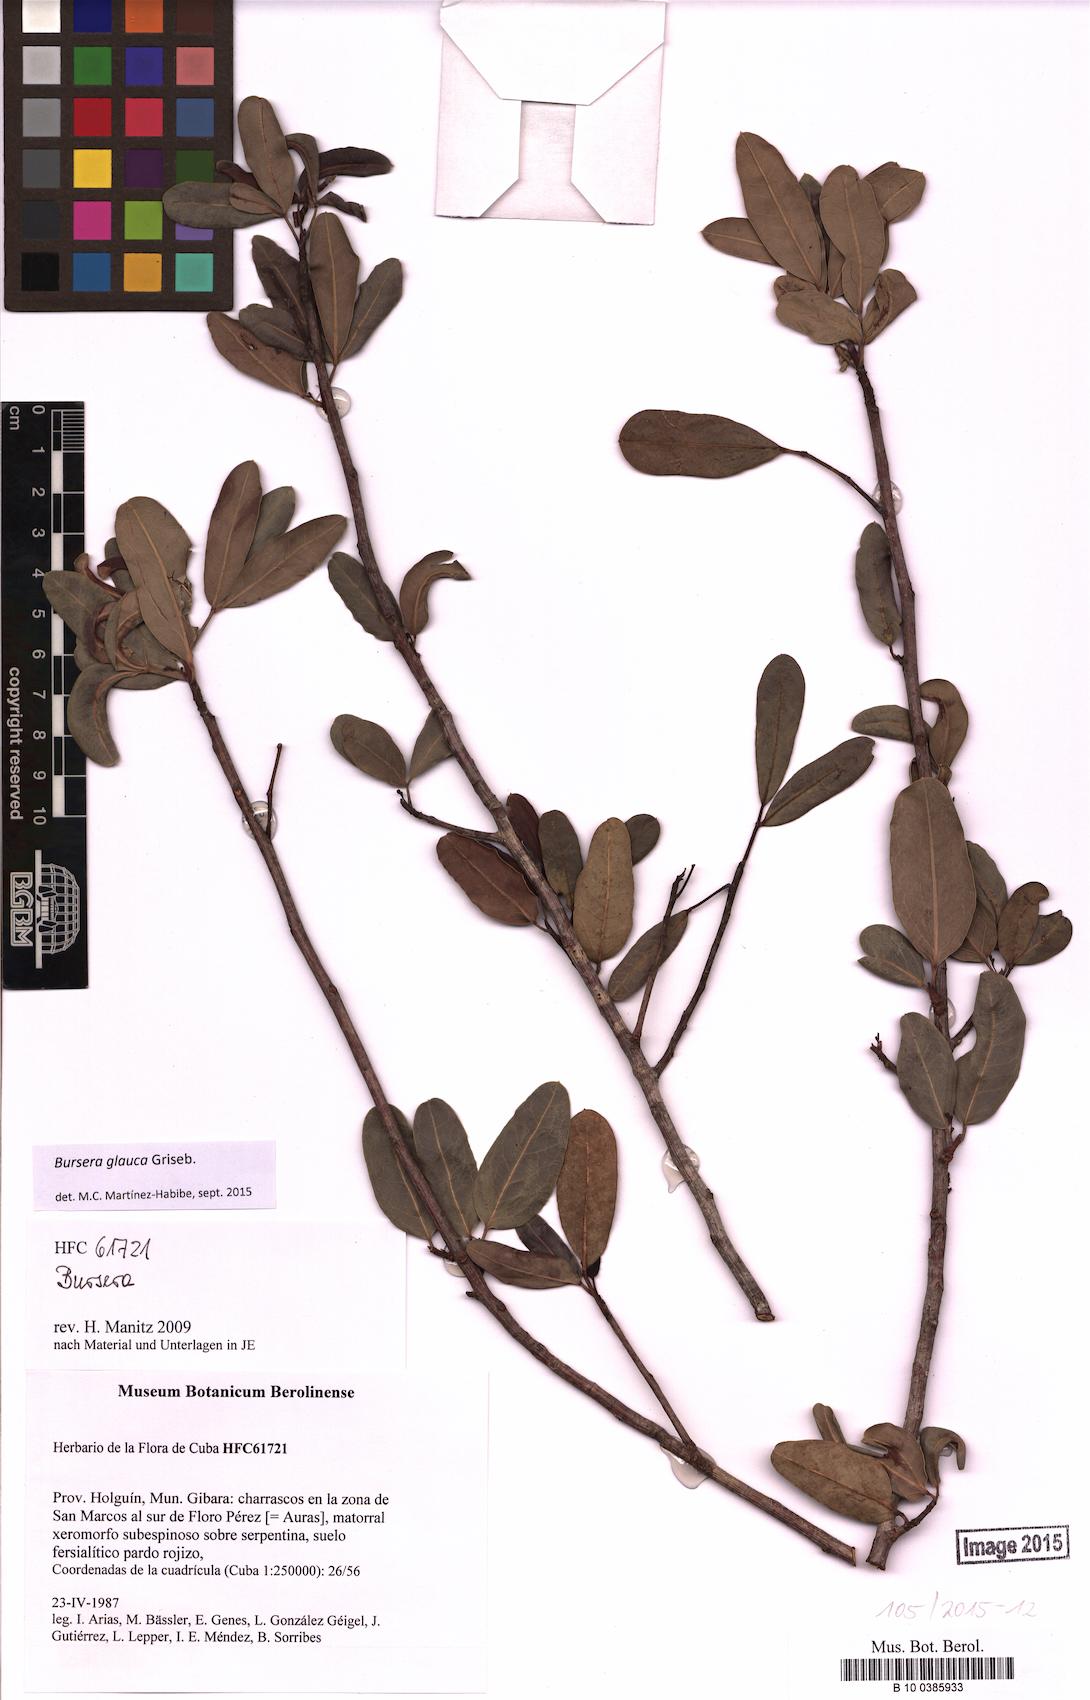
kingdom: Plantae
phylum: Tracheophyta
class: Magnoliopsida
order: Sapindales
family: Burseraceae
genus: Bursera
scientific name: Bursera glauca
